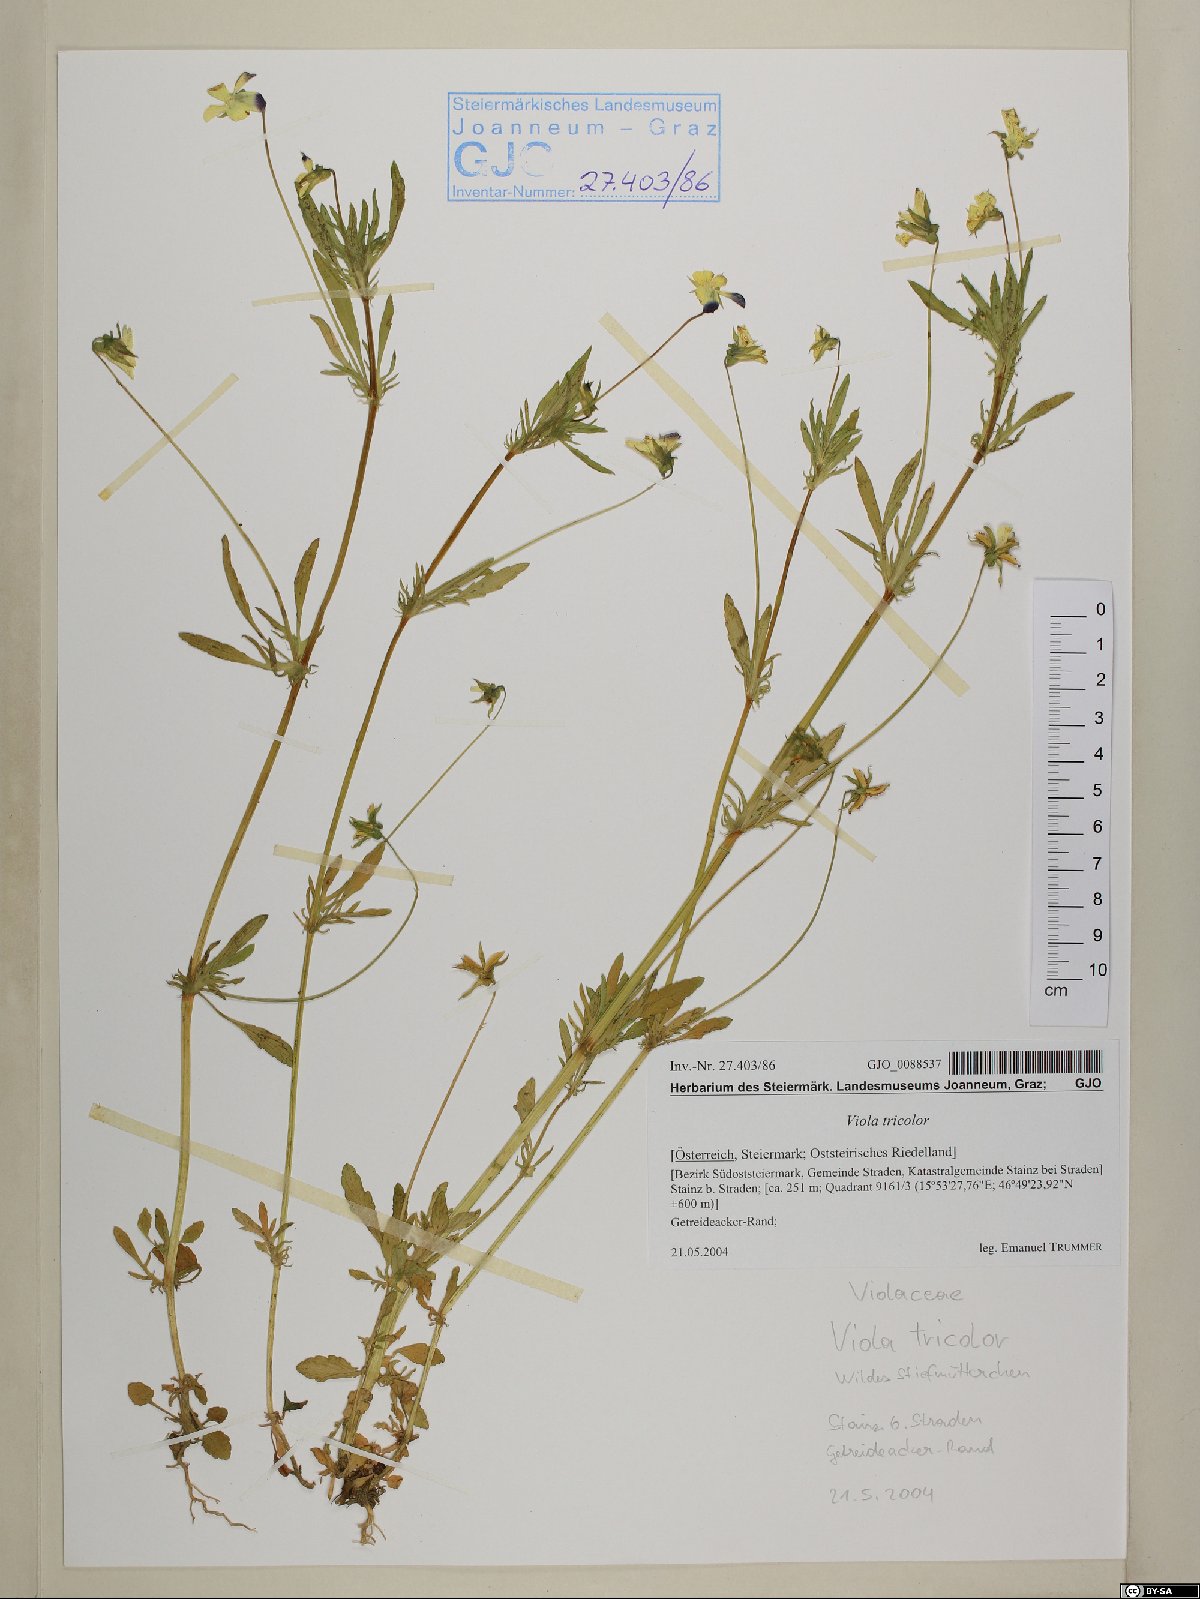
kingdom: Plantae
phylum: Tracheophyta
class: Magnoliopsida
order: Malpighiales
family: Violaceae
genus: Viola
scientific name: Viola tricolor
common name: Pansy
